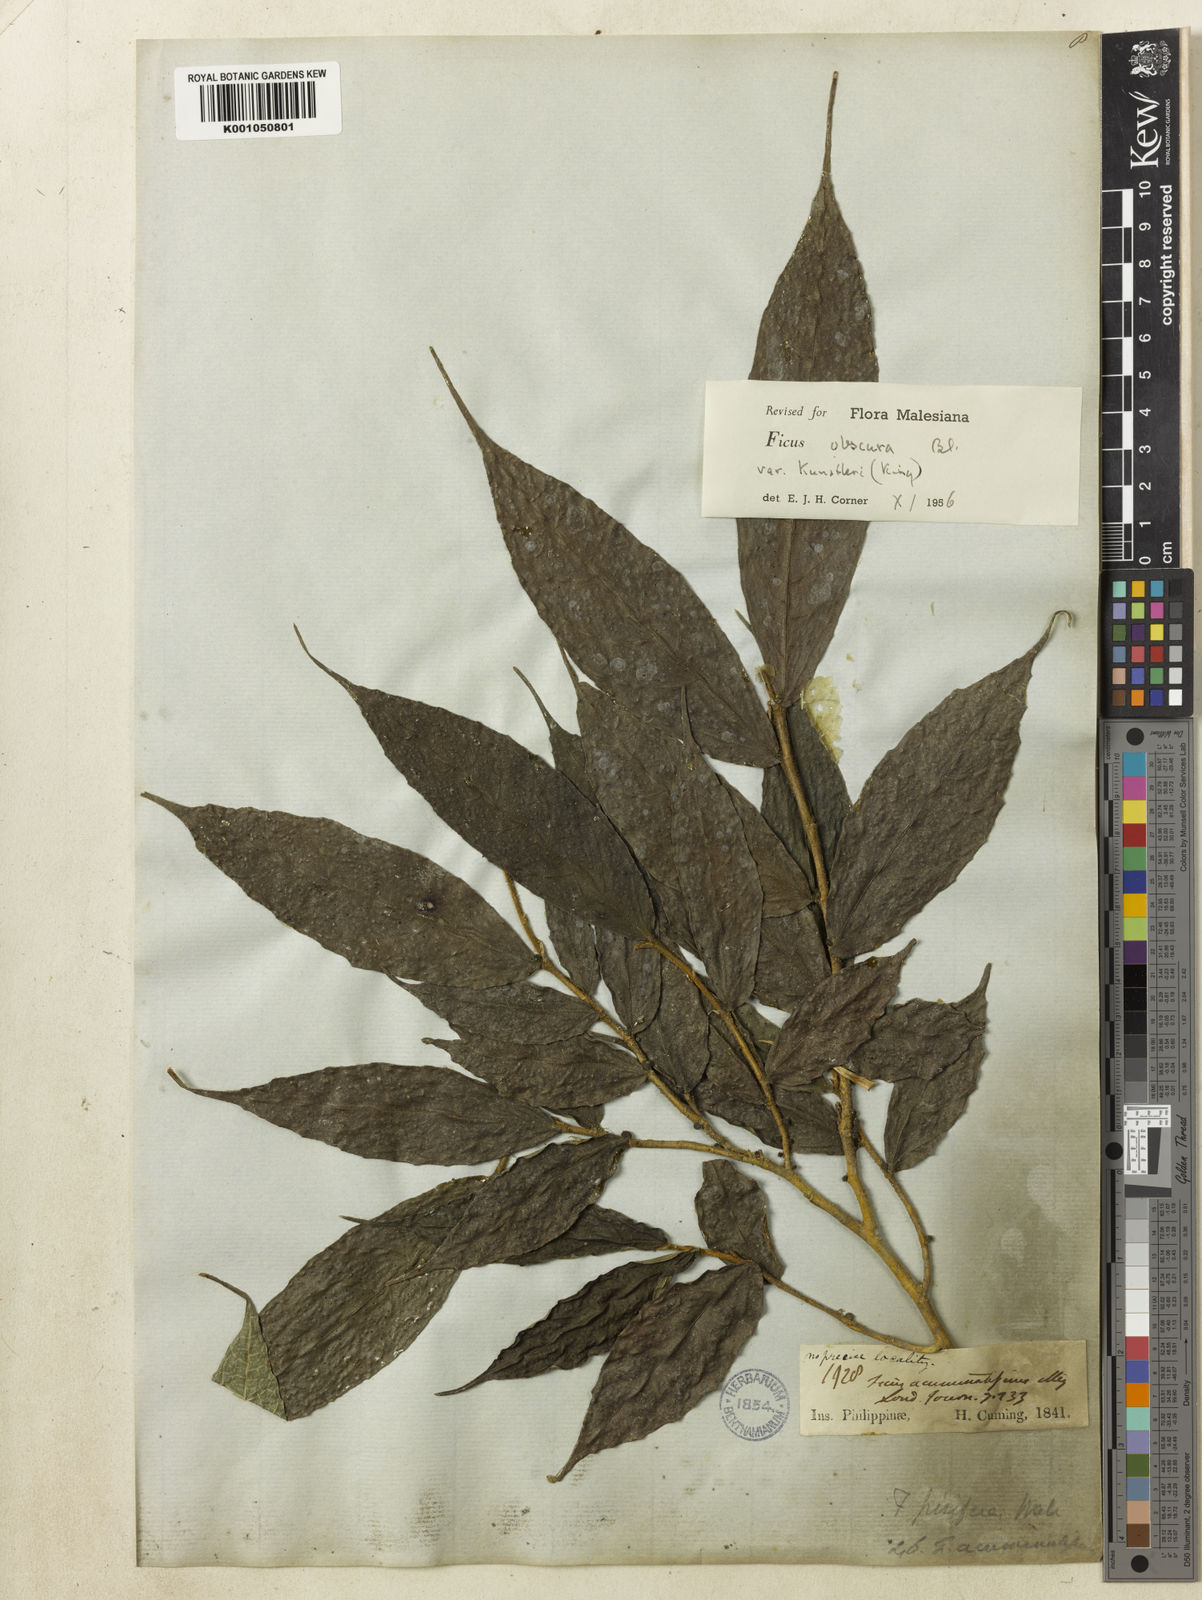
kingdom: Plantae
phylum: Tracheophyta
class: Magnoliopsida
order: Rosales
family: Moraceae
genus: Ficus
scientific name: Ficus obscura
